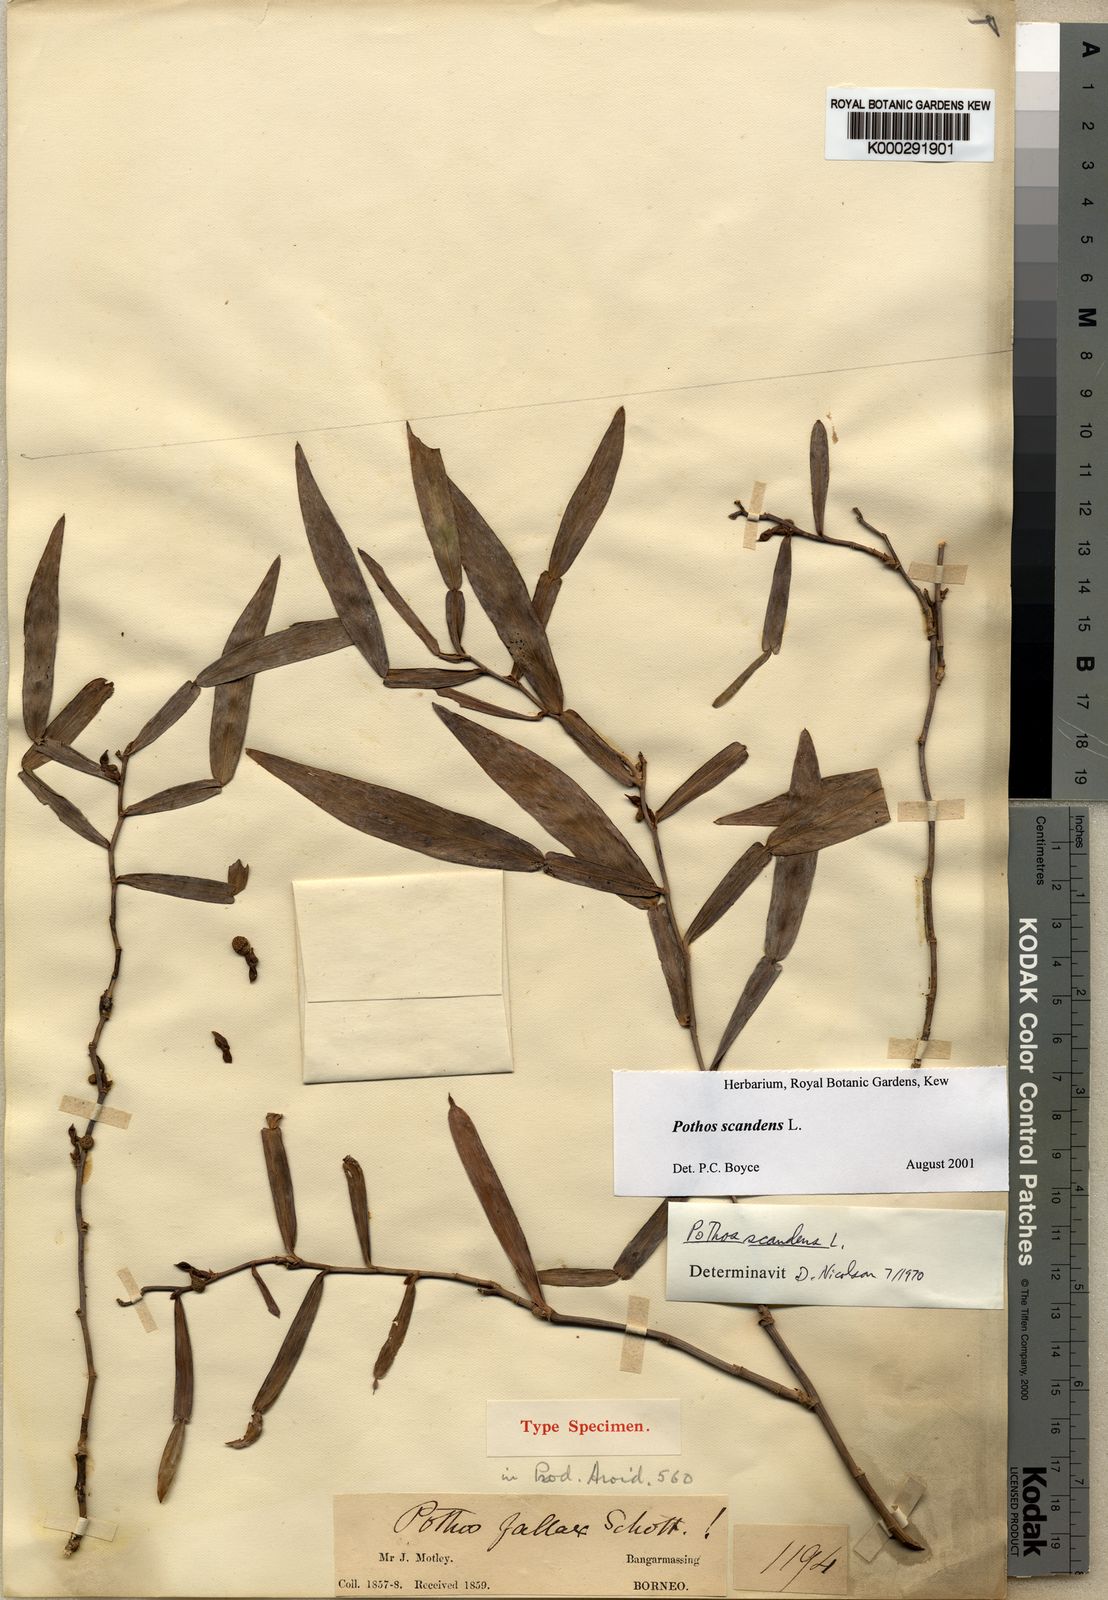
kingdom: Plantae
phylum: Tracheophyta
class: Liliopsida
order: Alismatales
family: Araceae
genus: Pothos
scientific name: Pothos scandens
